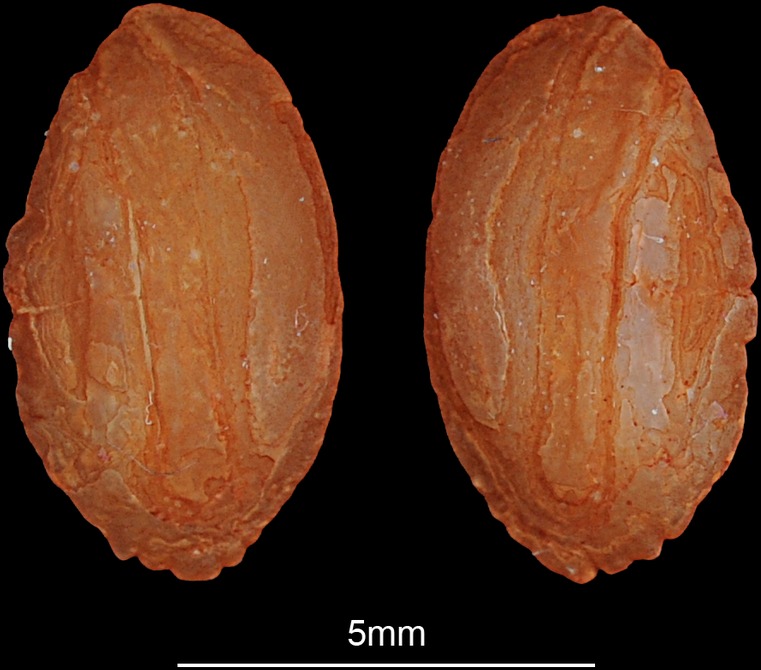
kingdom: Animalia
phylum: Chordata
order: Perciformes
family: Percidae
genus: Gymnocephalus
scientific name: Gymnocephalus schraetser
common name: Schraetzer
